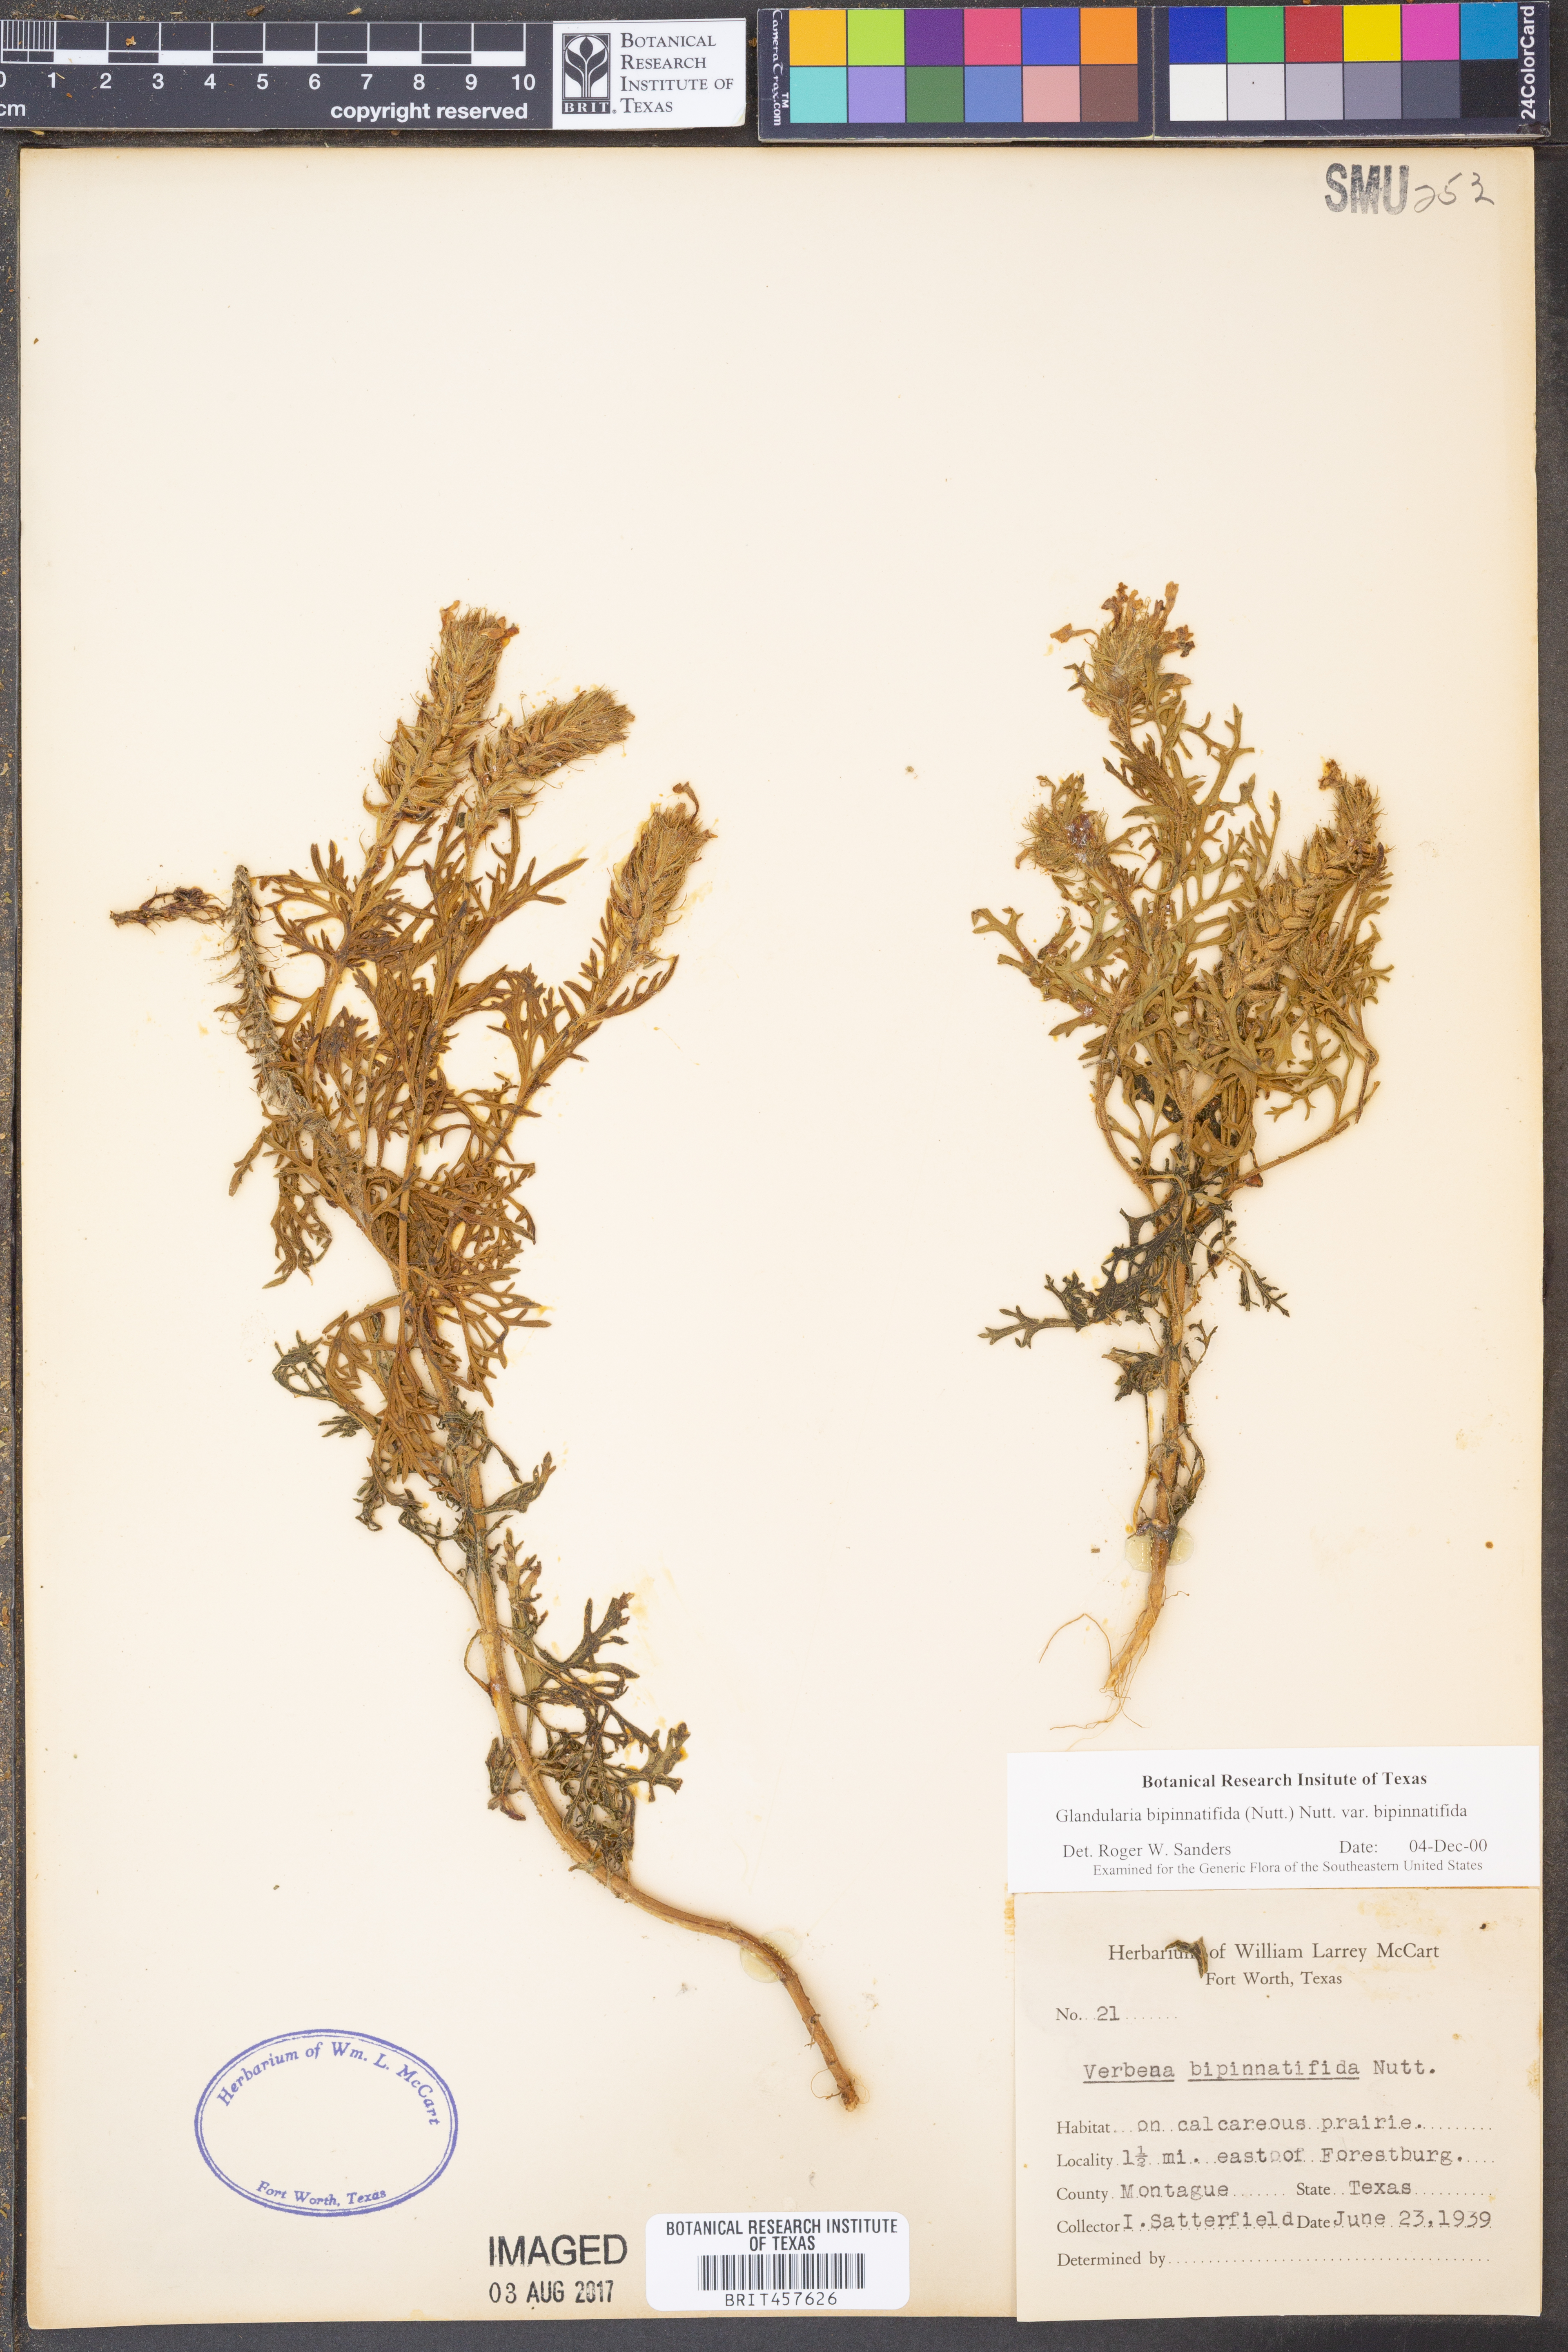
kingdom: Plantae
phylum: Tracheophyta
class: Magnoliopsida
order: Lamiales
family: Verbenaceae
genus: Verbena
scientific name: Verbena bipinnatifida
